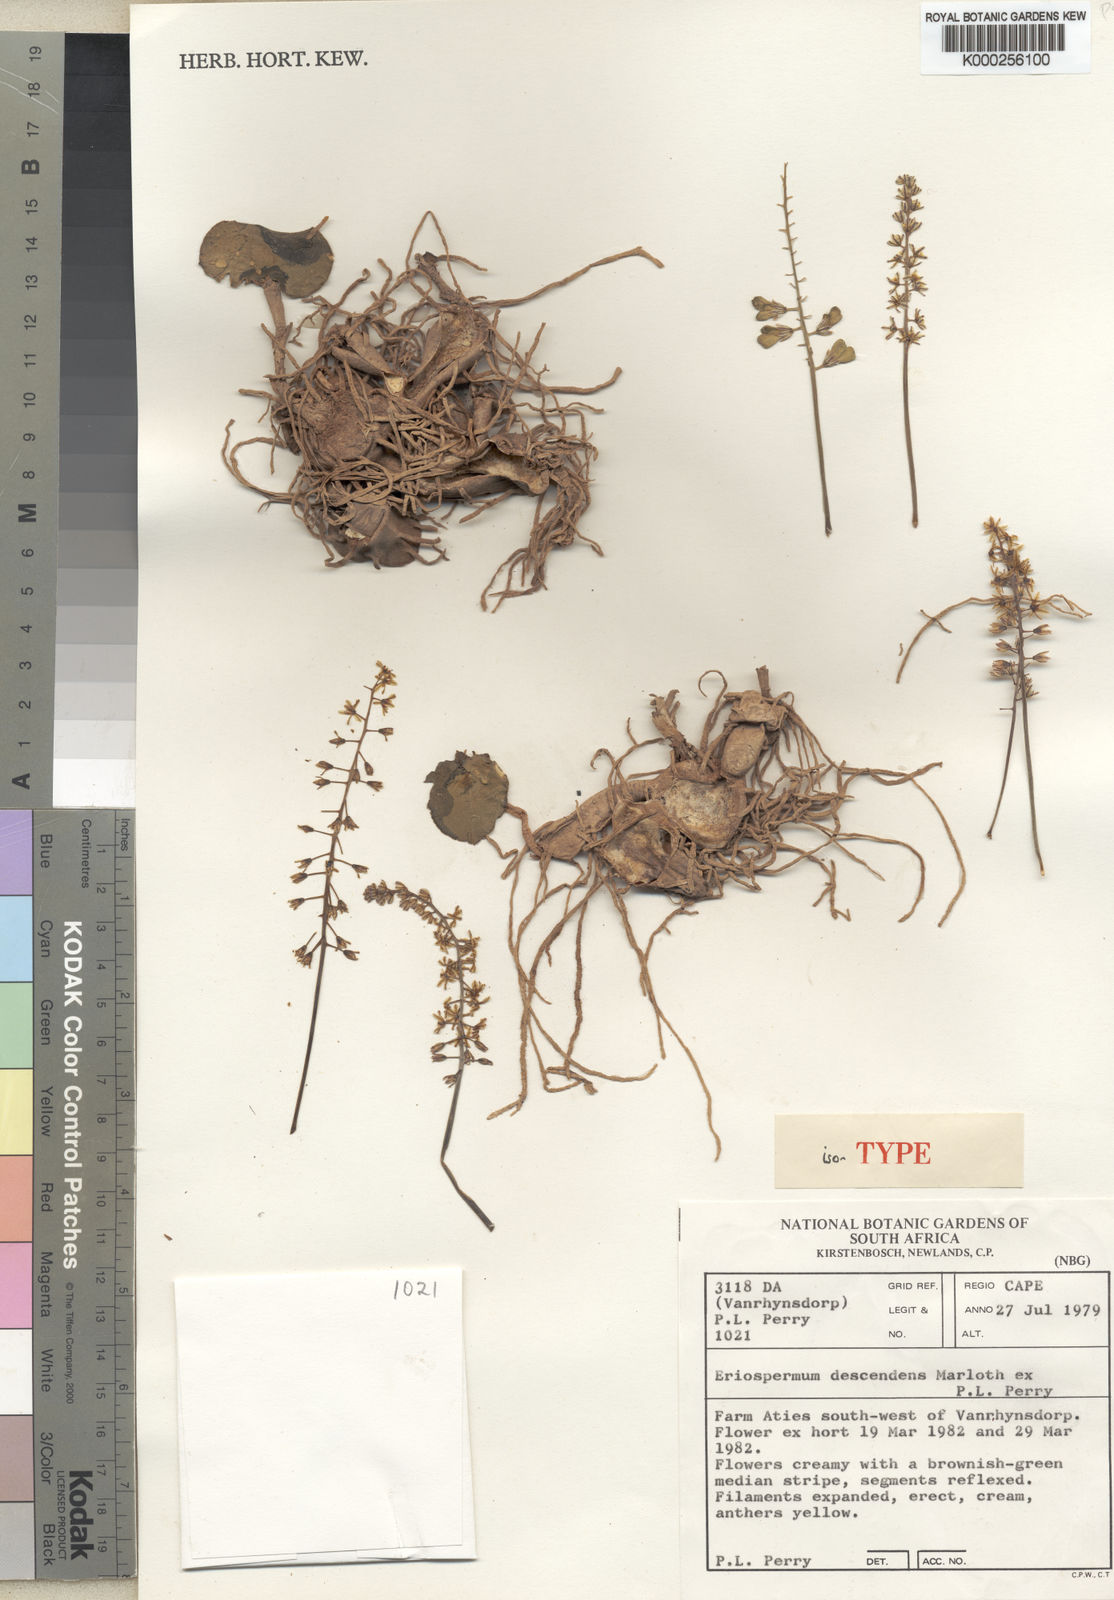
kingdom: Plantae
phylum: Tracheophyta
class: Liliopsida
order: Asparagales
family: Asparagaceae
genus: Eriospermum
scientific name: Eriospermum descendens
